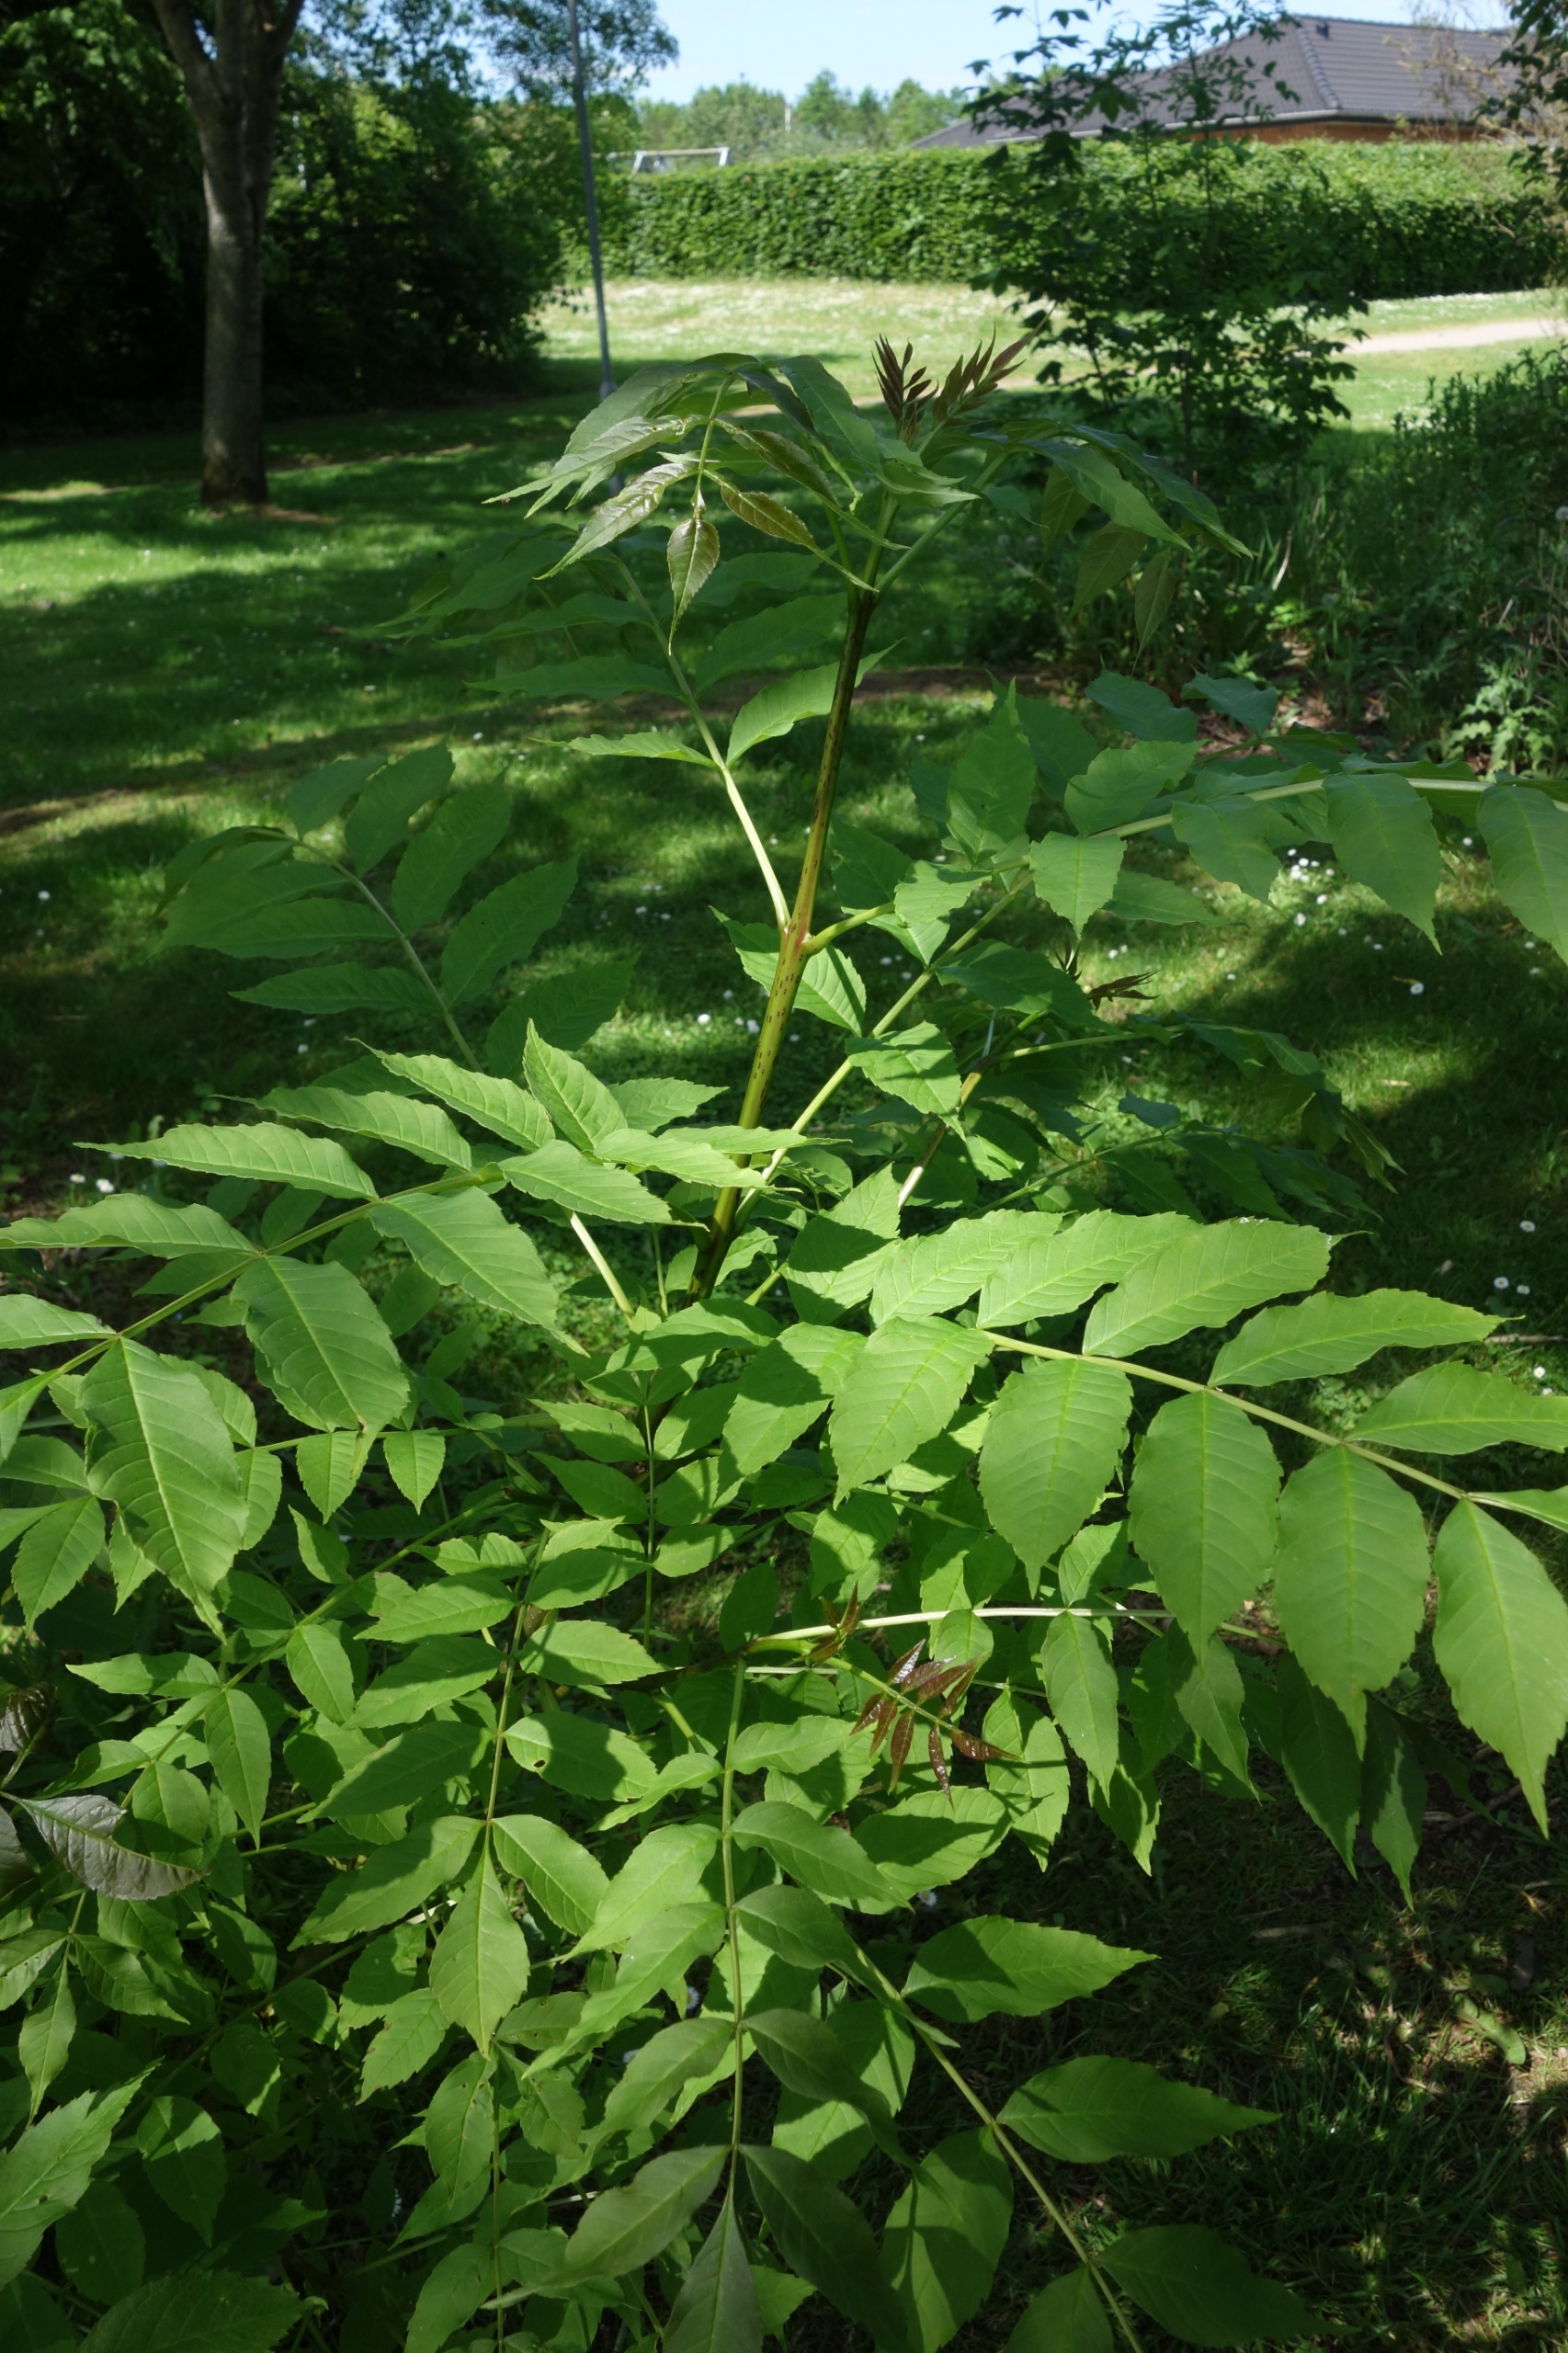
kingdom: Plantae
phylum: Tracheophyta
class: Magnoliopsida
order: Lamiales
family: Oleaceae
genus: Fraxinus
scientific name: Fraxinus excelsior
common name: Ask
